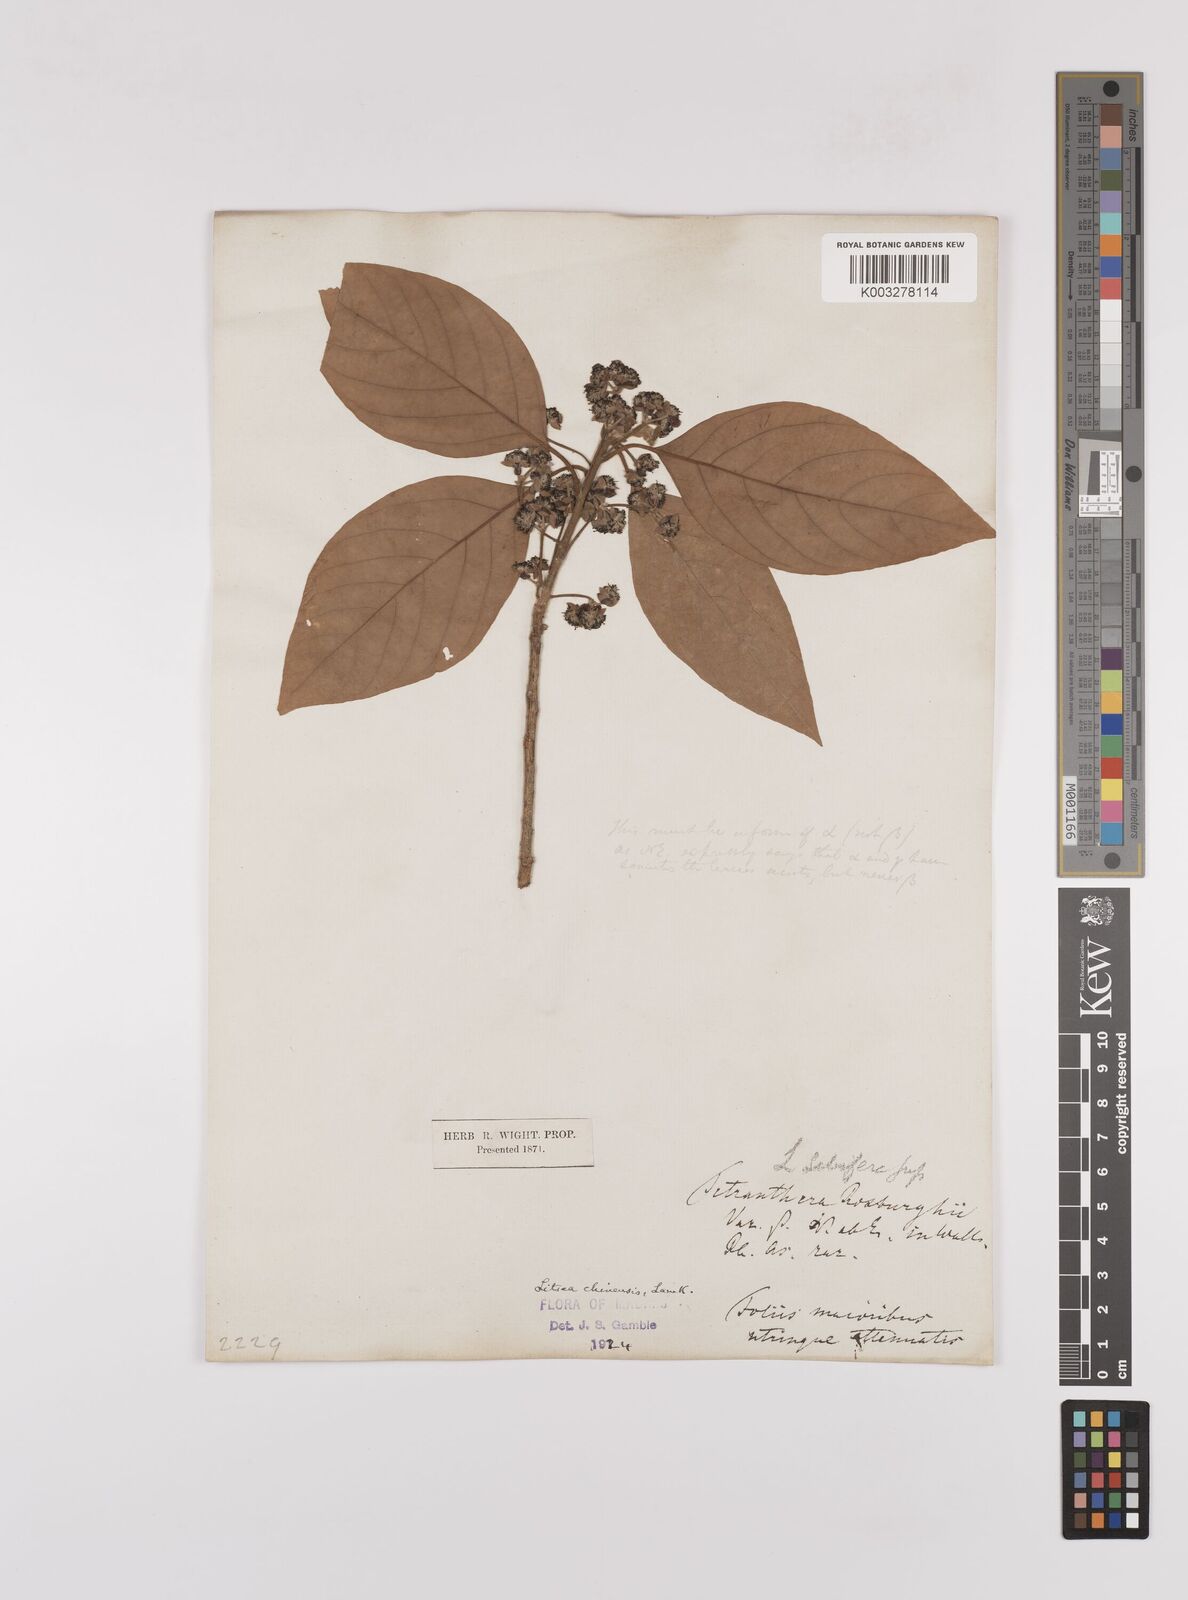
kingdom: Plantae
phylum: Tracheophyta
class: Magnoliopsida
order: Laurales
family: Lauraceae
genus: Litsea
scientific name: Litsea
